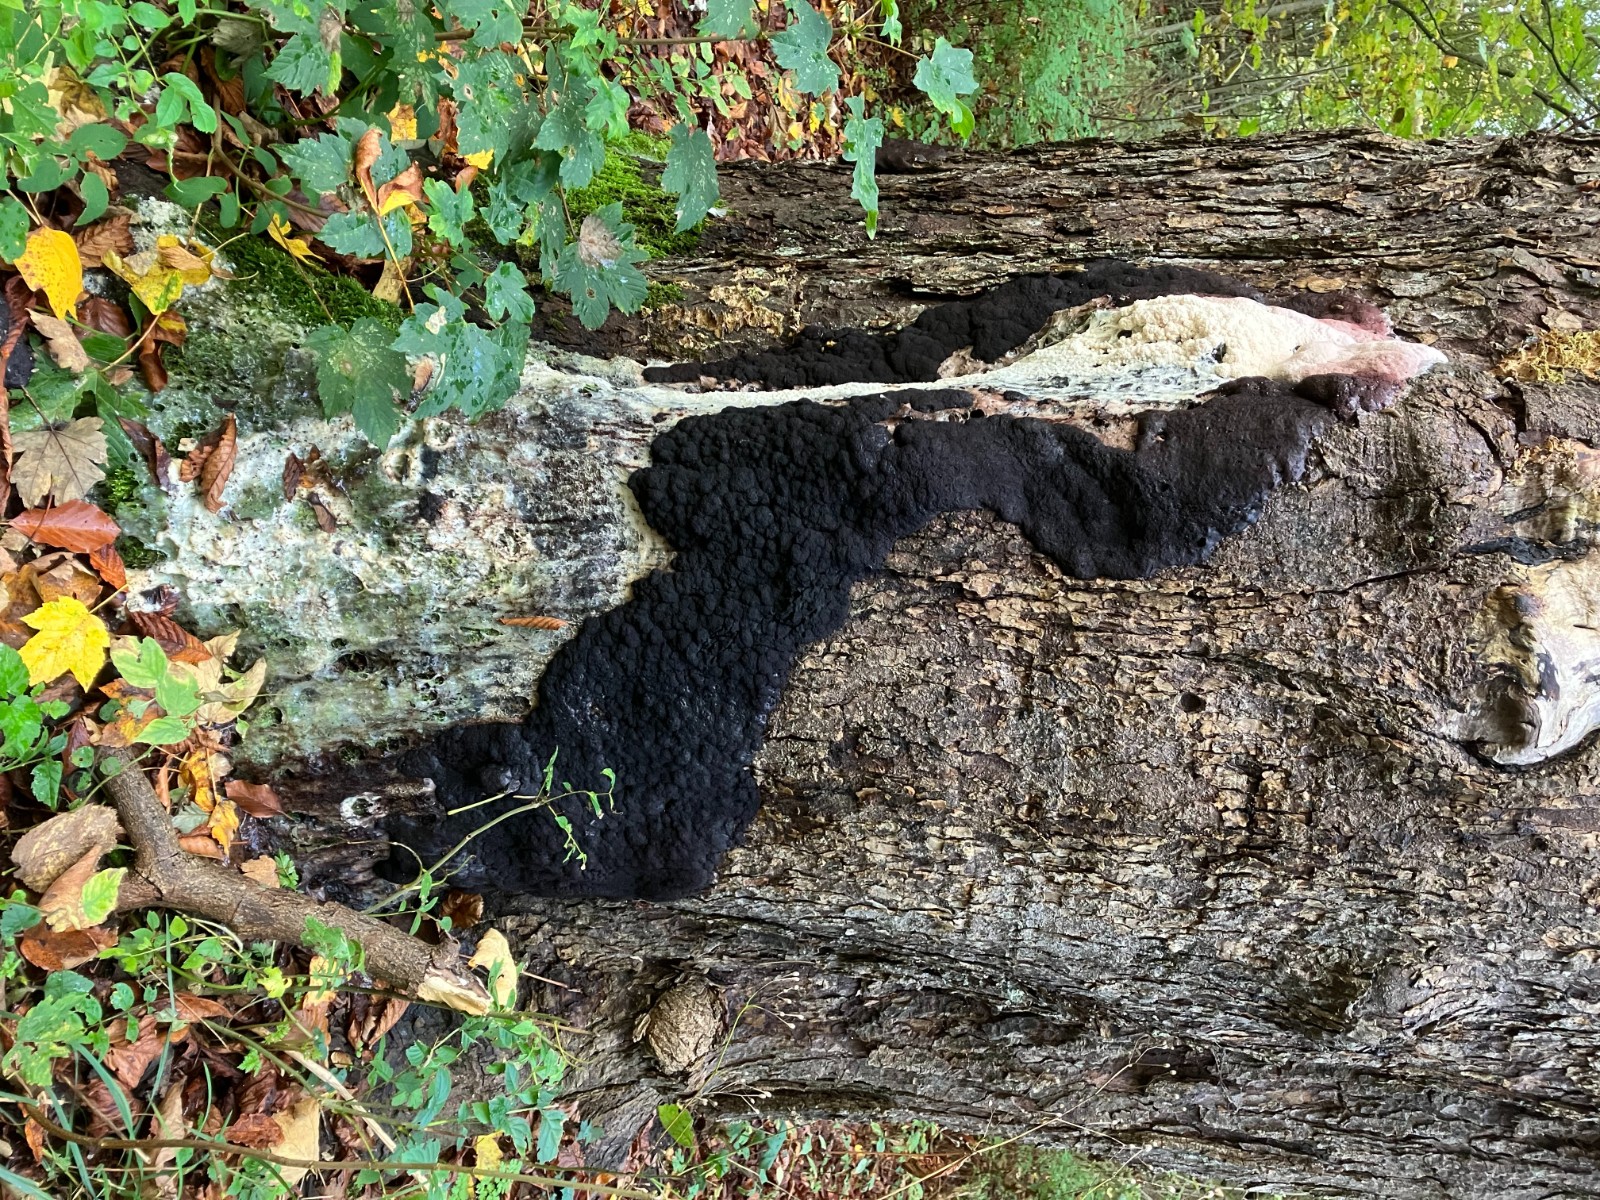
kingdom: Protozoa
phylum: Mycetozoa
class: Myxomycetes
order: Stemonitidales
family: Stemonitidaceae
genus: Brefeldia
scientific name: Brefeldia maxima
